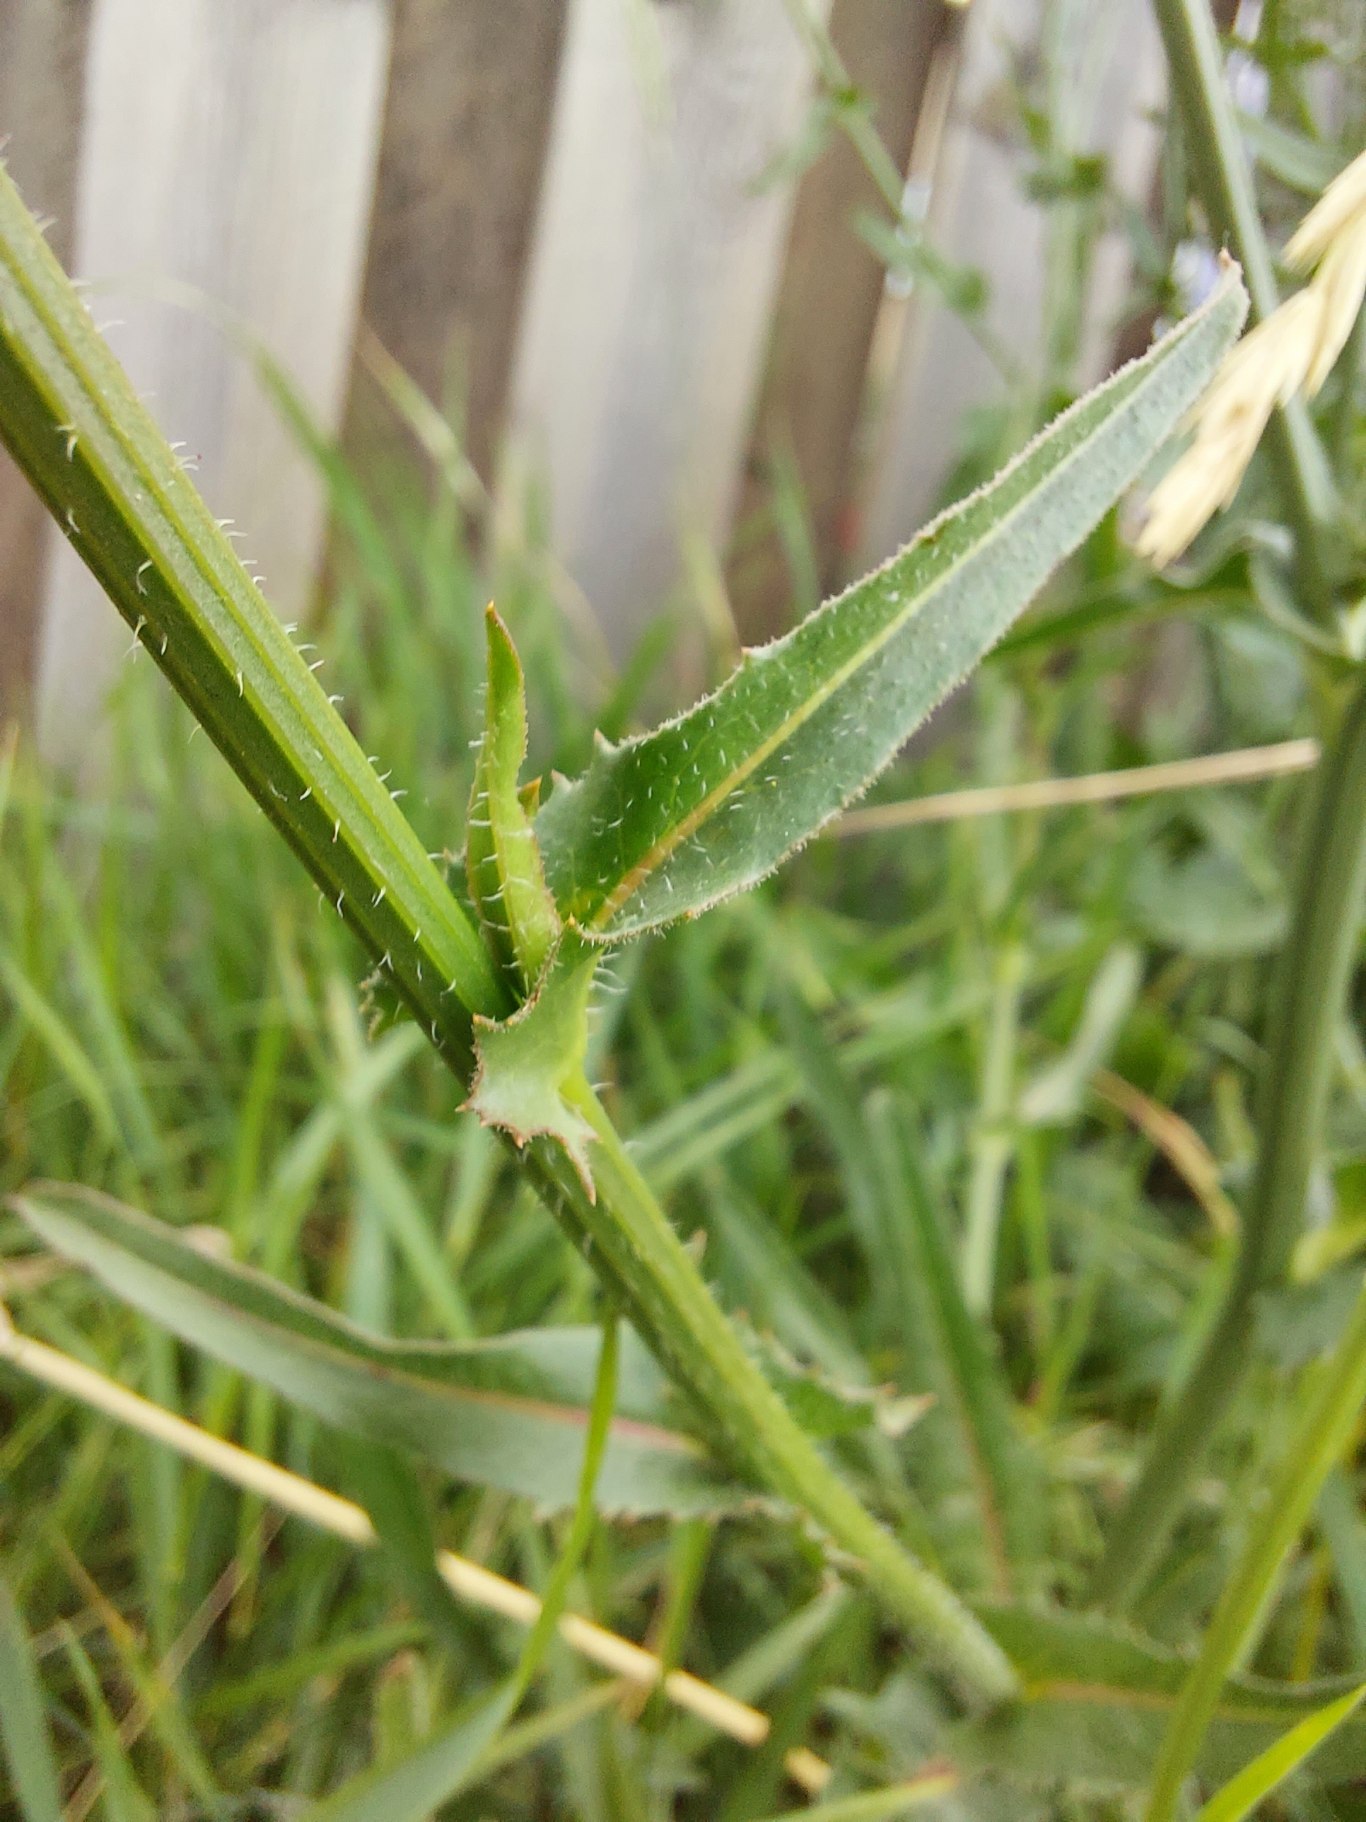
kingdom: Plantae
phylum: Tracheophyta
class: Magnoliopsida
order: Asterales
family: Asteraceae
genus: Cichorium
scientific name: Cichorium intybus
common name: Cikorie
